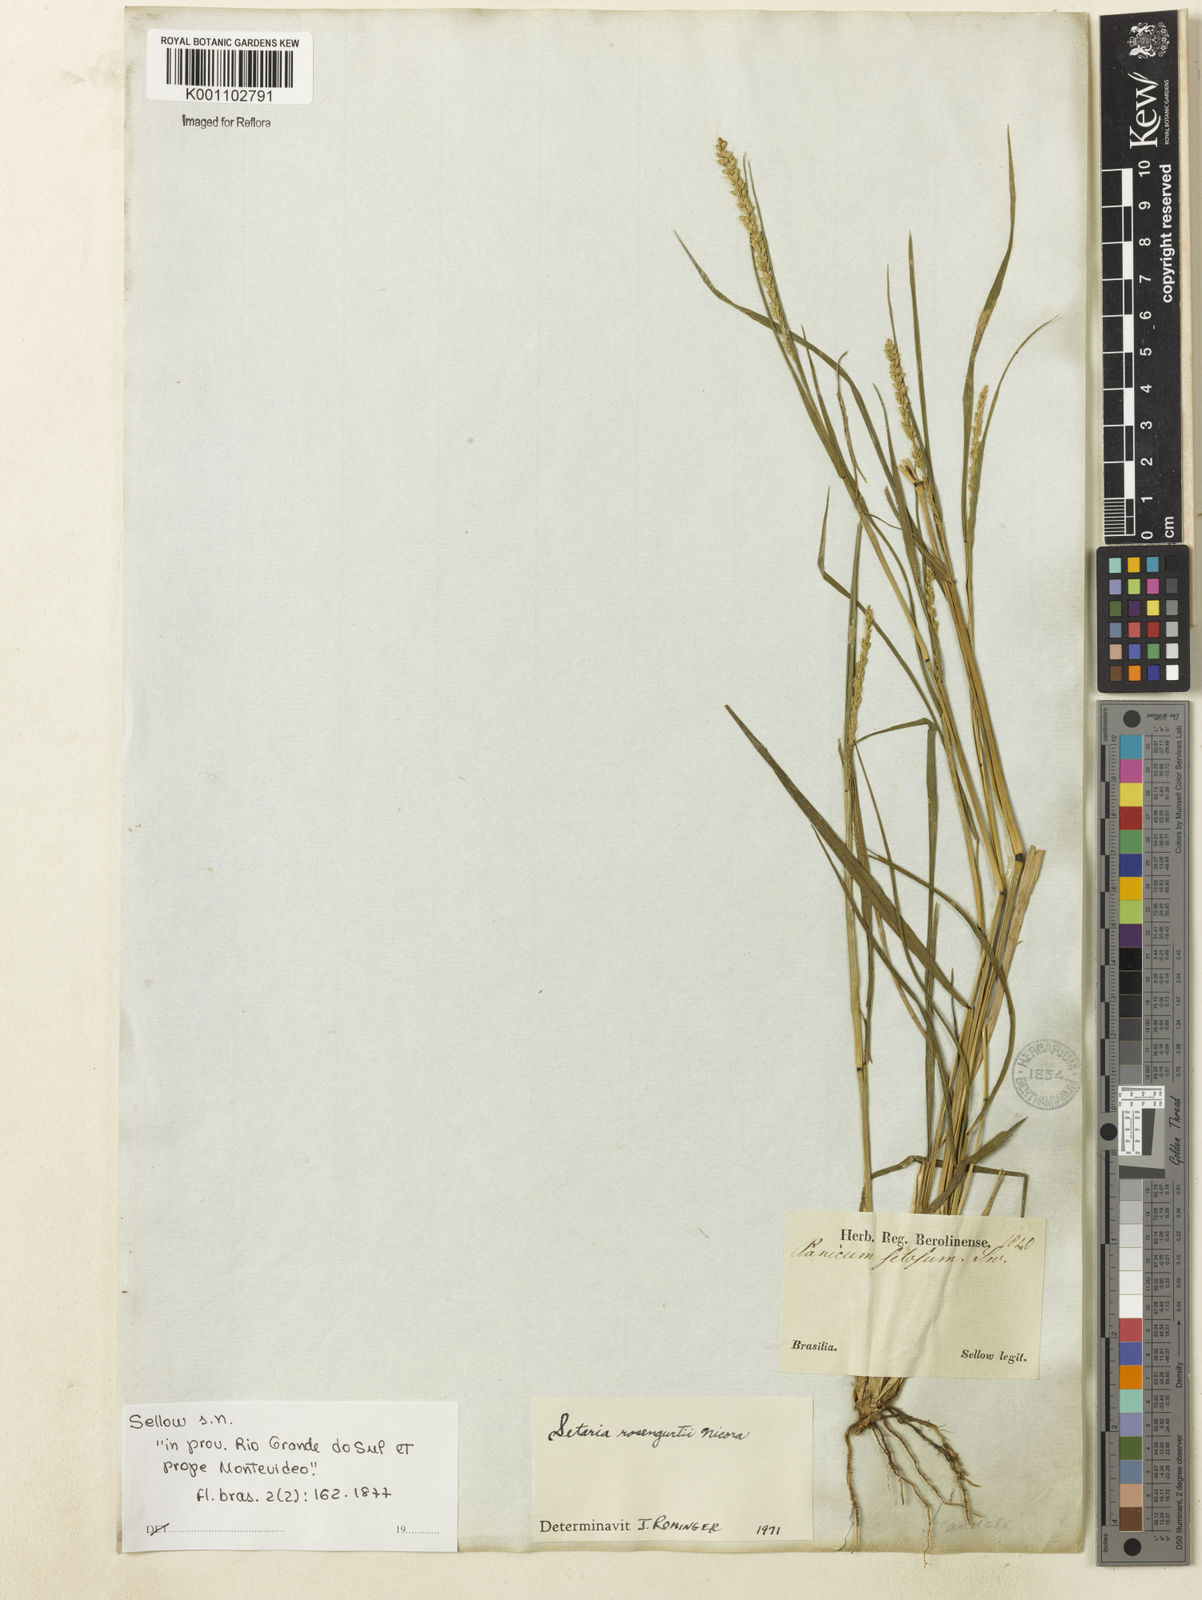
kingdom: Plantae
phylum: Tracheophyta
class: Liliopsida
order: Poales
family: Poaceae
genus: Setaria
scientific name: Setaria rosengurttii
